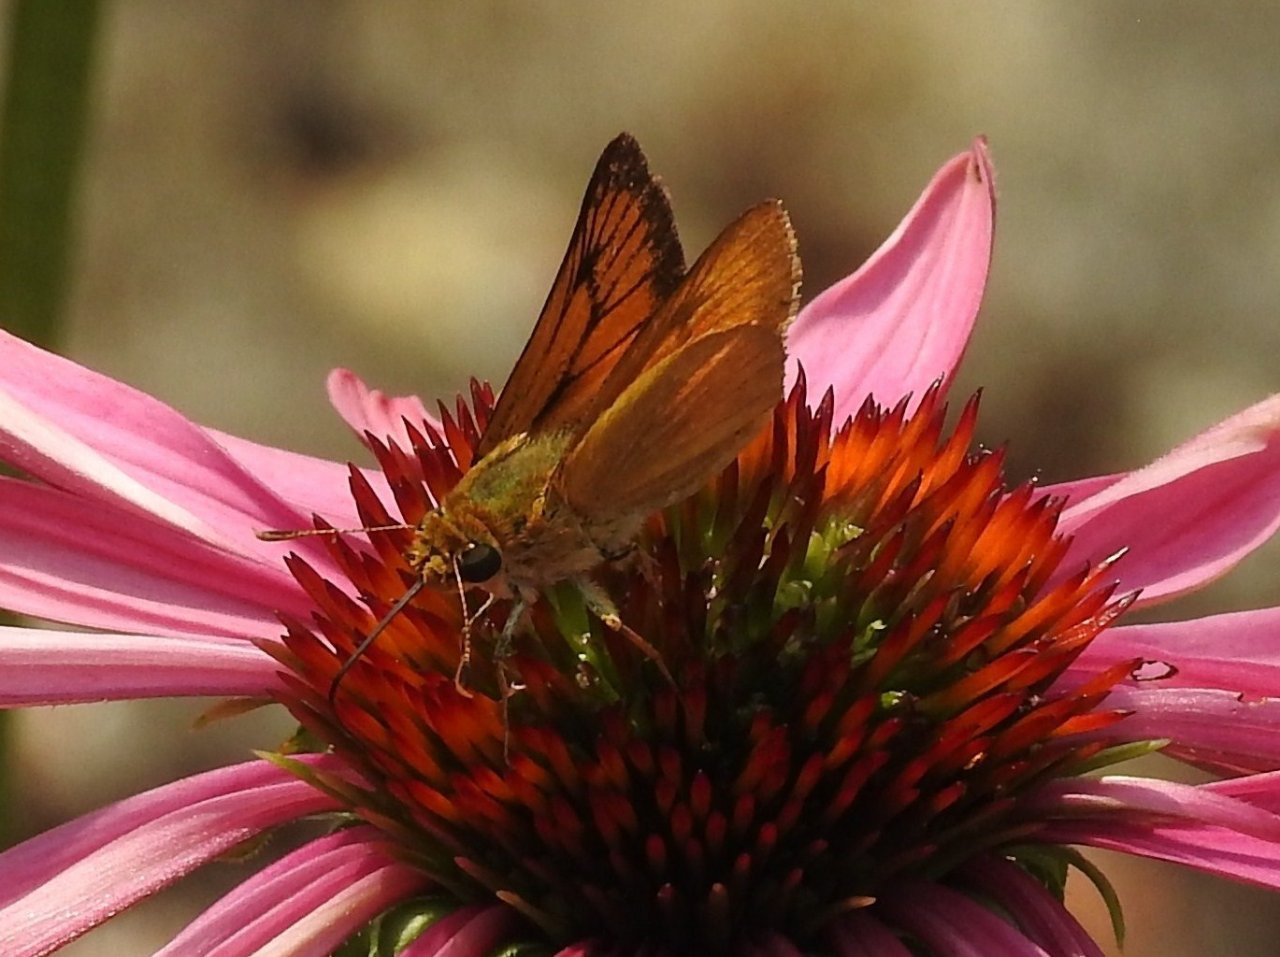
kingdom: Animalia
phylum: Arthropoda
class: Insecta
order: Lepidoptera
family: Hesperiidae
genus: Atrytone
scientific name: Atrytone delaware
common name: Delaware Skipper
